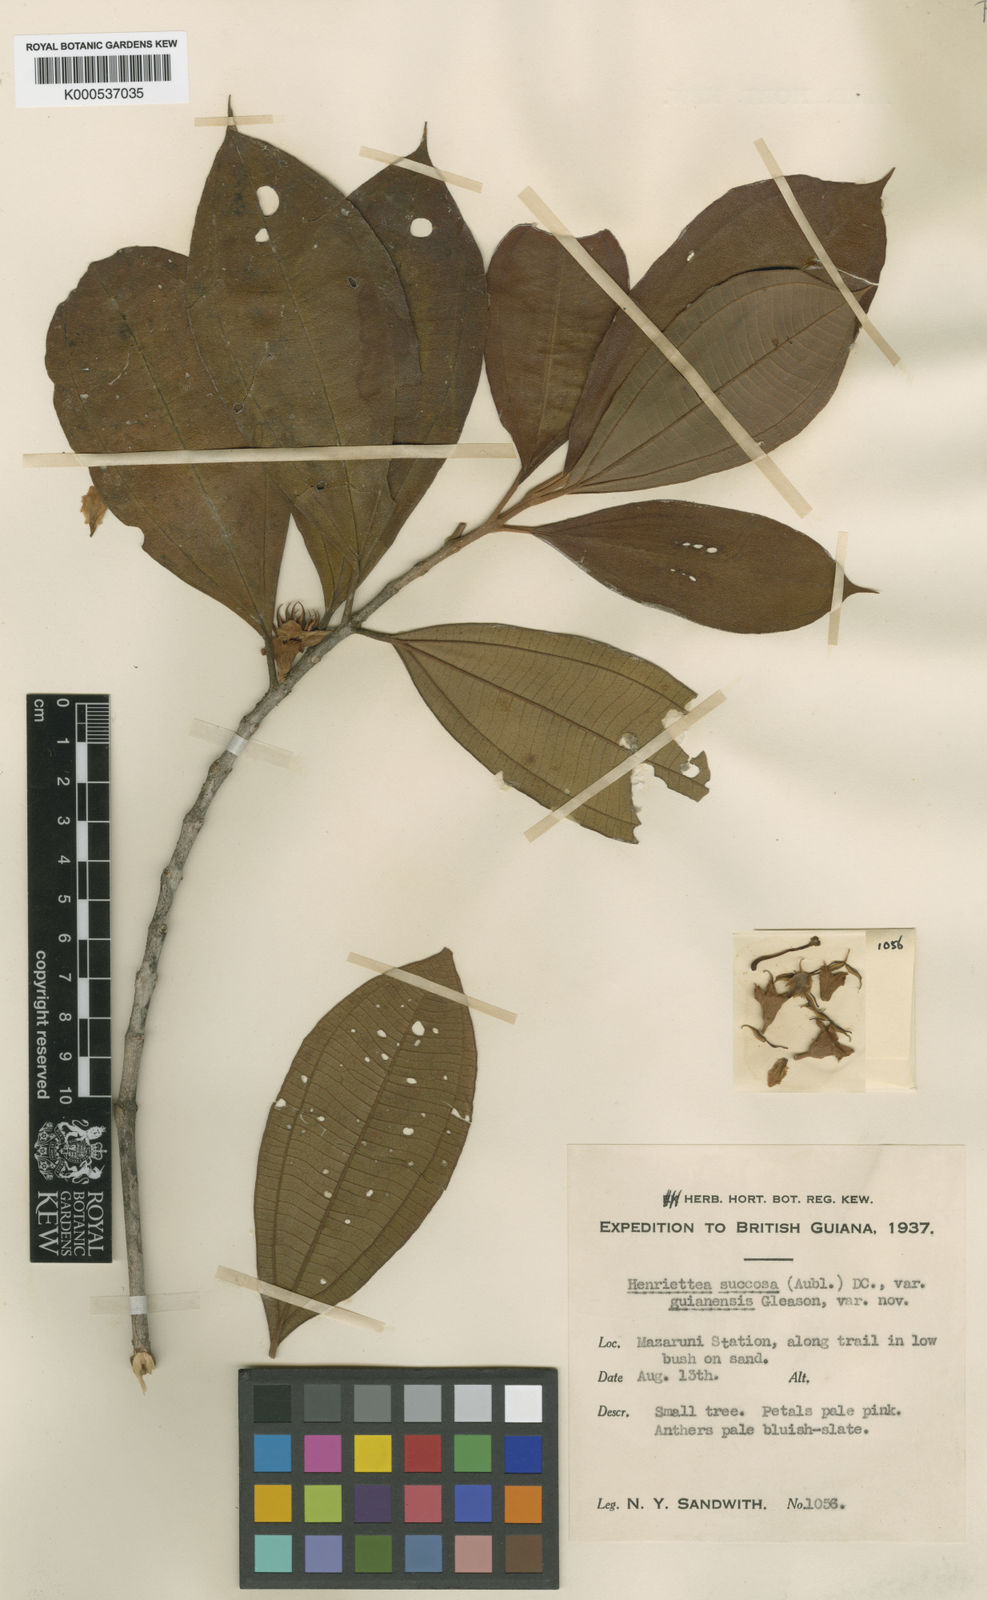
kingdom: Plantae
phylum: Tracheophyta
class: Magnoliopsida
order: Myrtales
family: Melastomataceae
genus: Henriettea
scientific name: Henriettea ramiflora
